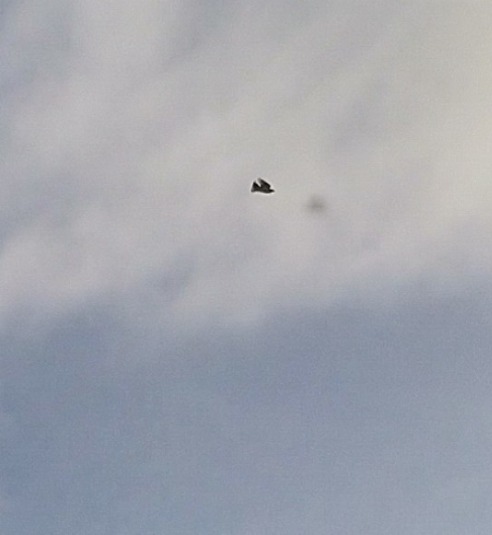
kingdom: Animalia
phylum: Chordata
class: Aves
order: Passeriformes
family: Alaudidae
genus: Alauda
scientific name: Alauda arvensis
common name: Sanglærke
